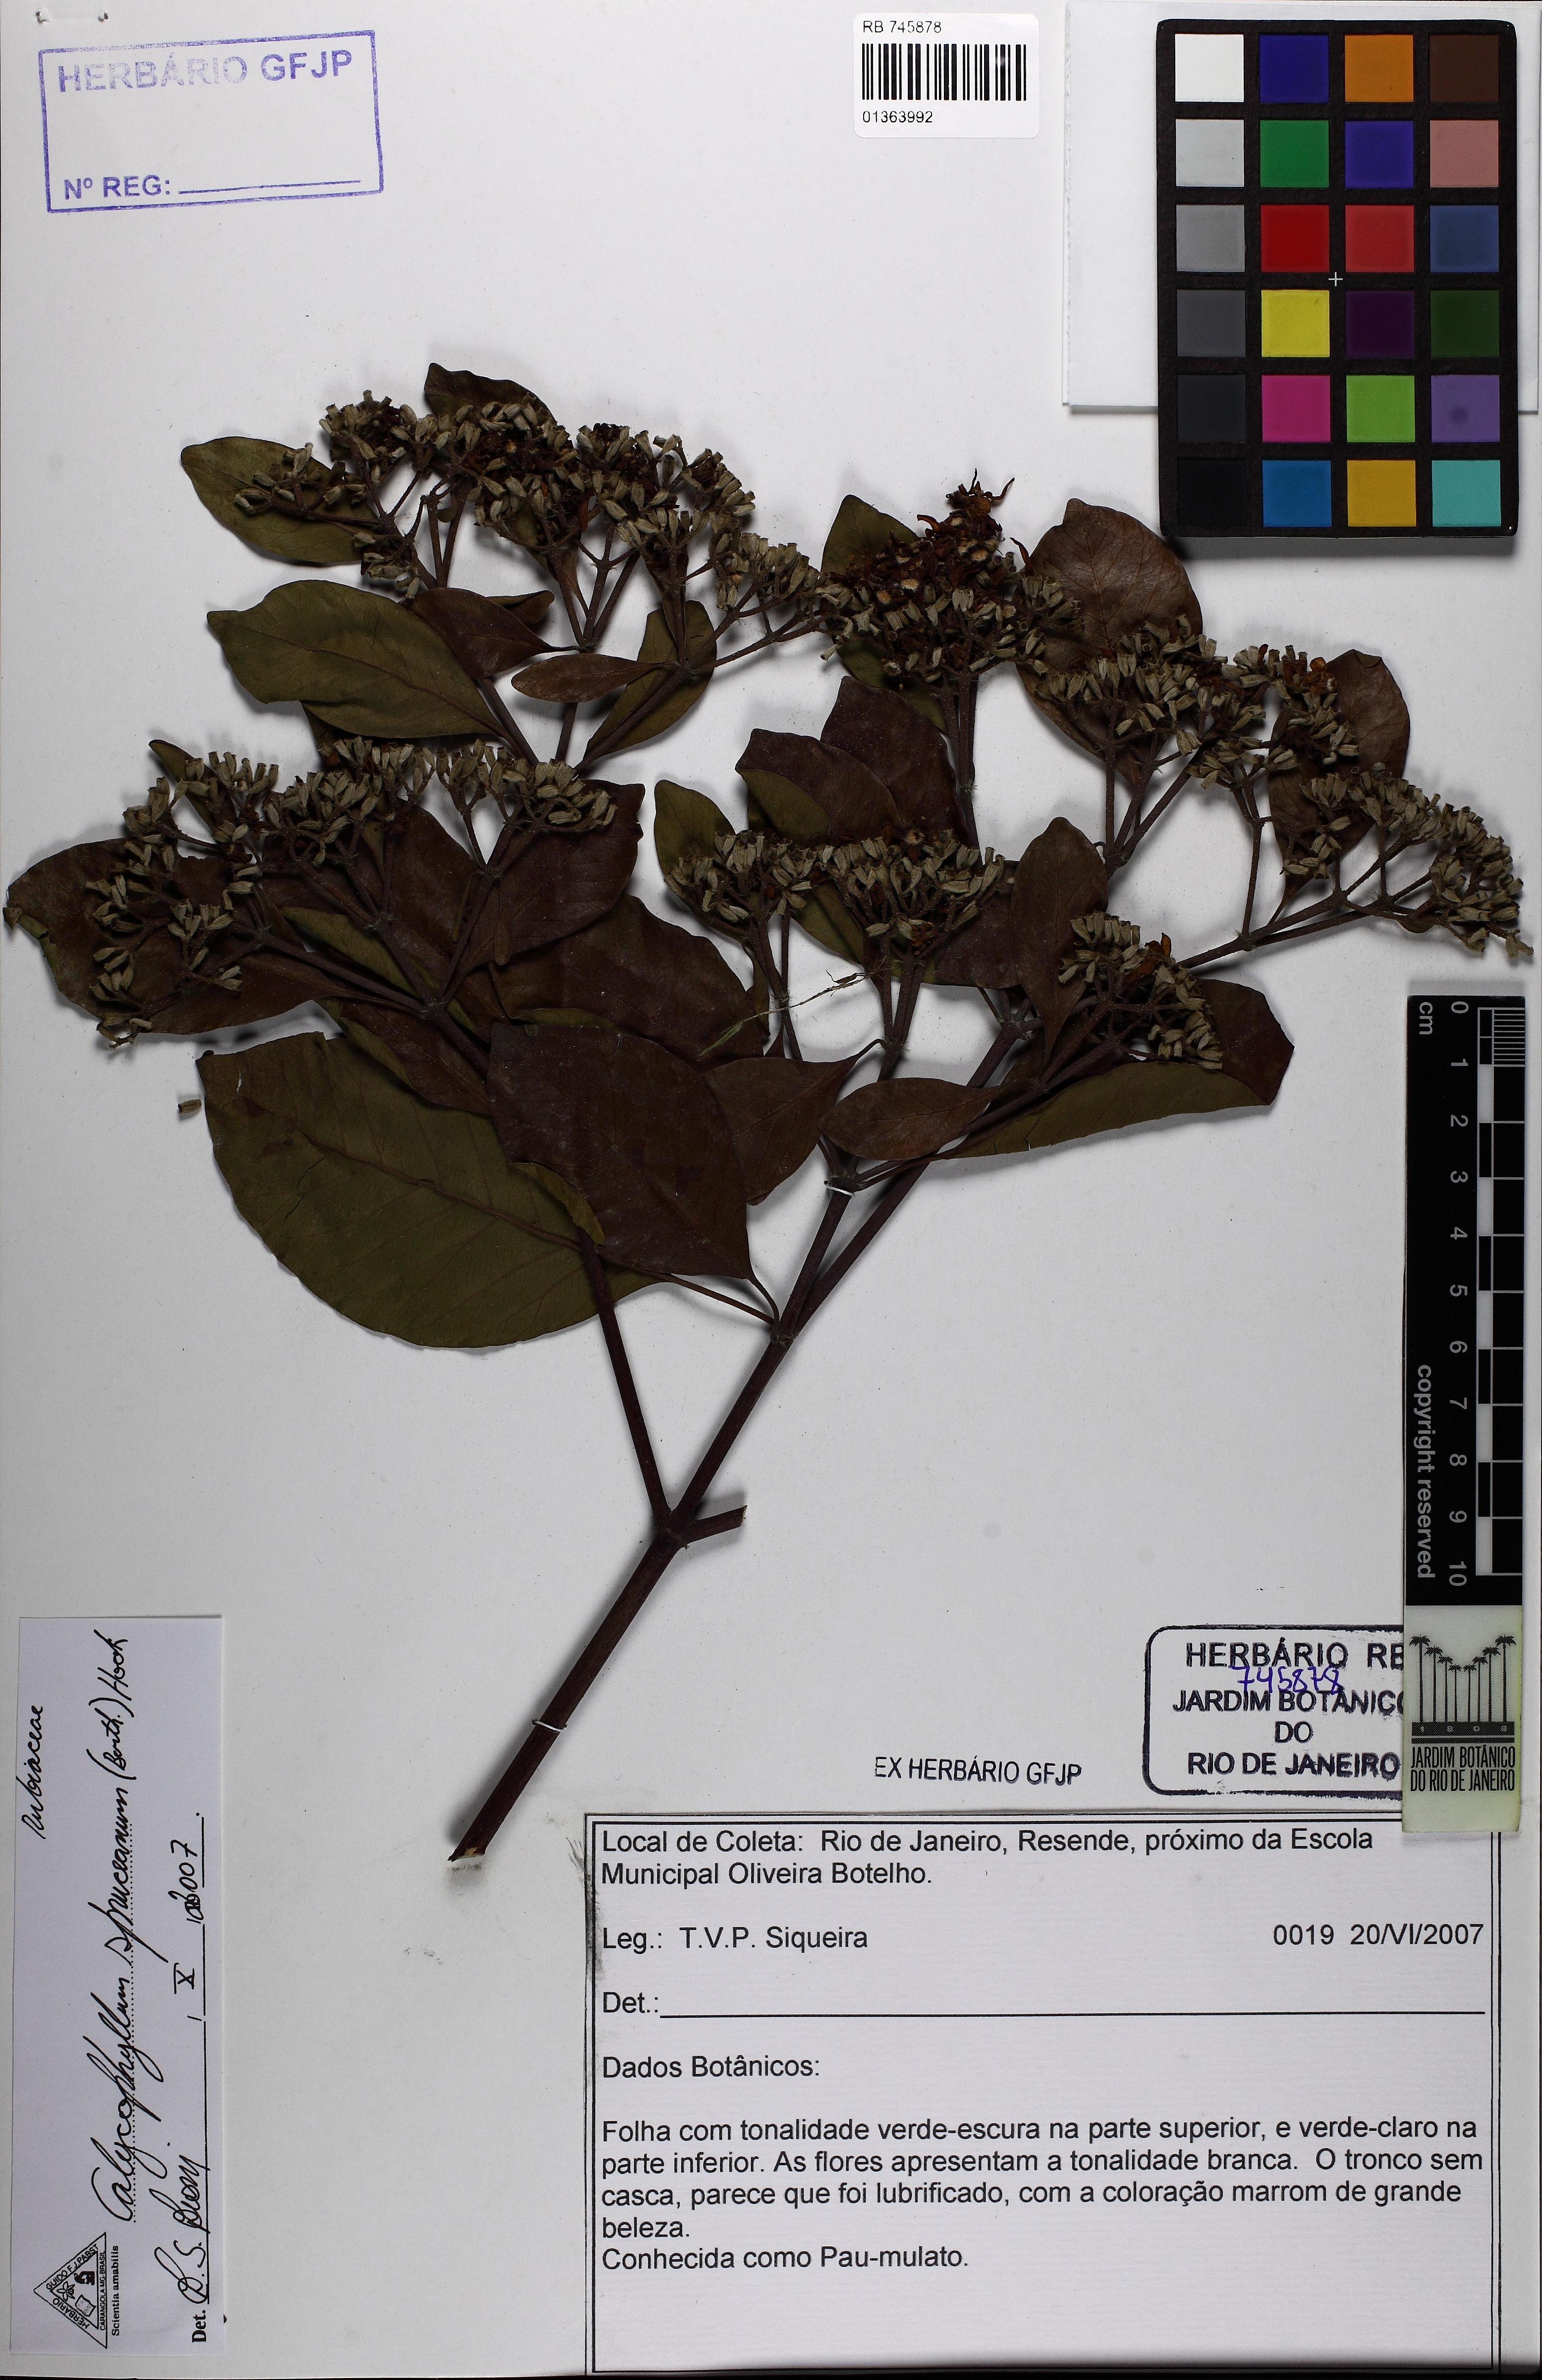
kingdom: Plantae
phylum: Tracheophyta
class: Magnoliopsida
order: Gentianales
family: Rubiaceae
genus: Calycophyllum
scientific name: Calycophyllum spruceanum
